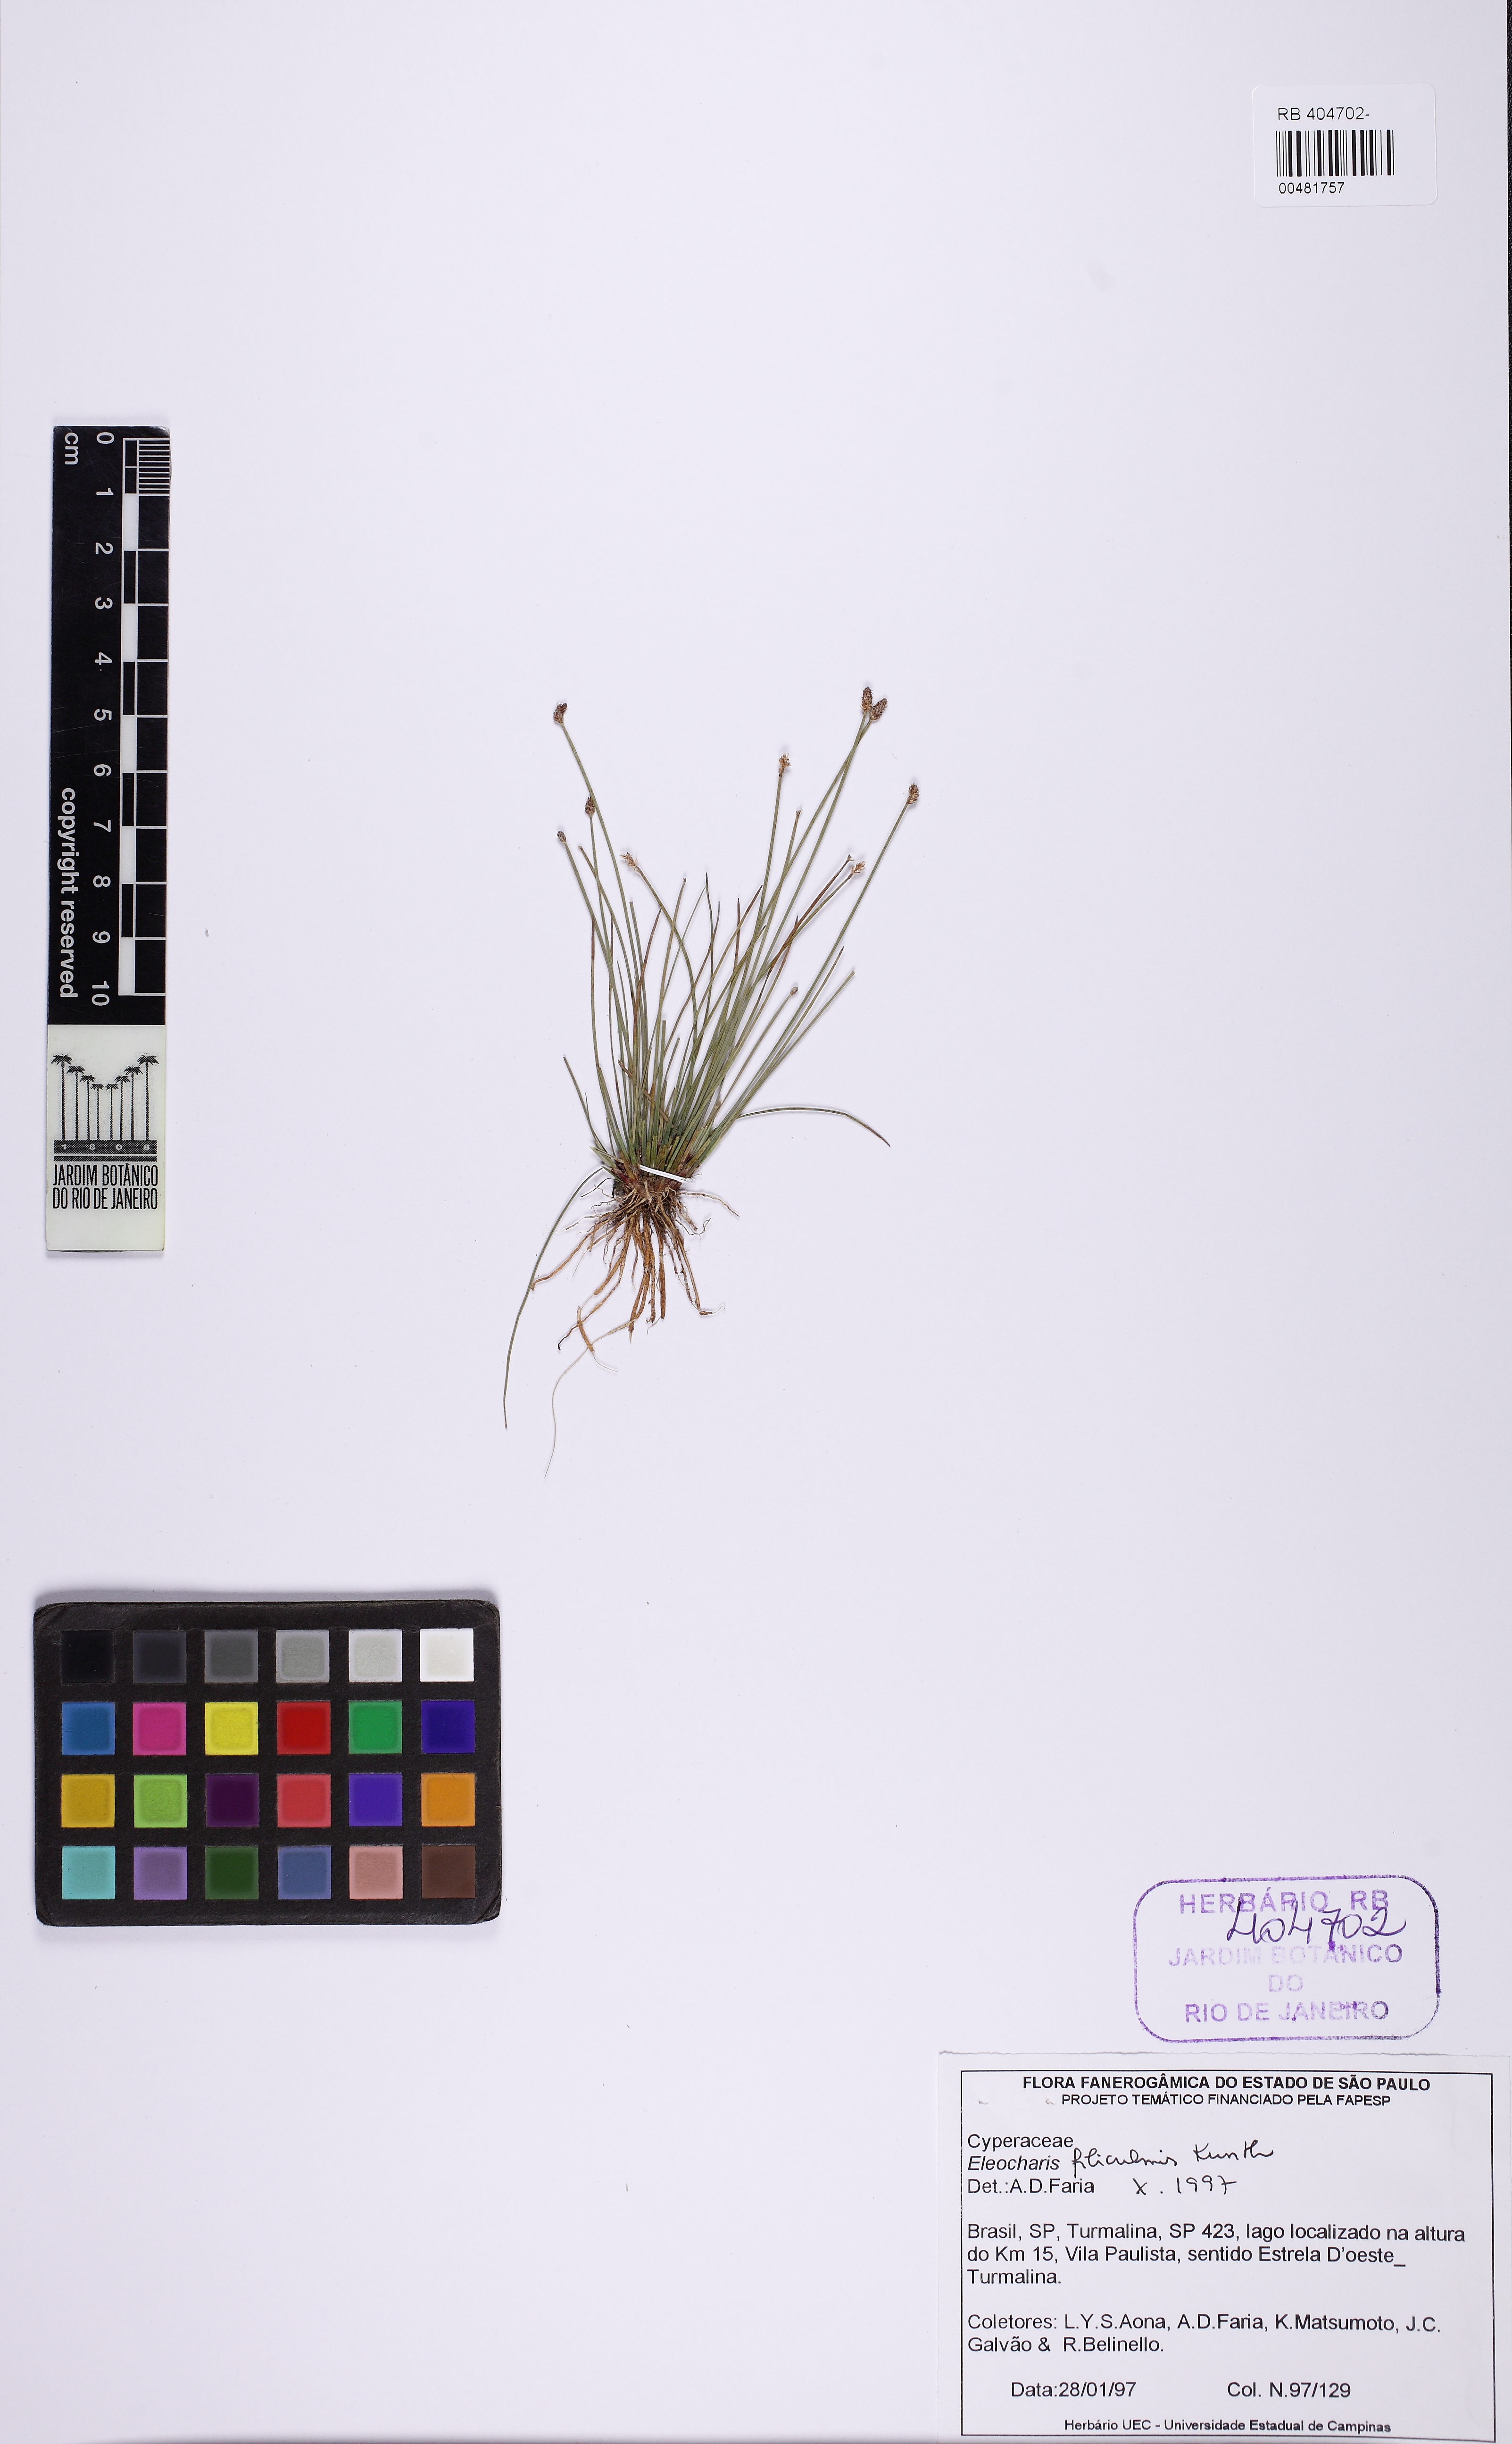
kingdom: Plantae
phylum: Tracheophyta
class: Liliopsida
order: Poales
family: Cyperaceae
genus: Eleocharis
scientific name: Eleocharis filiculmis
